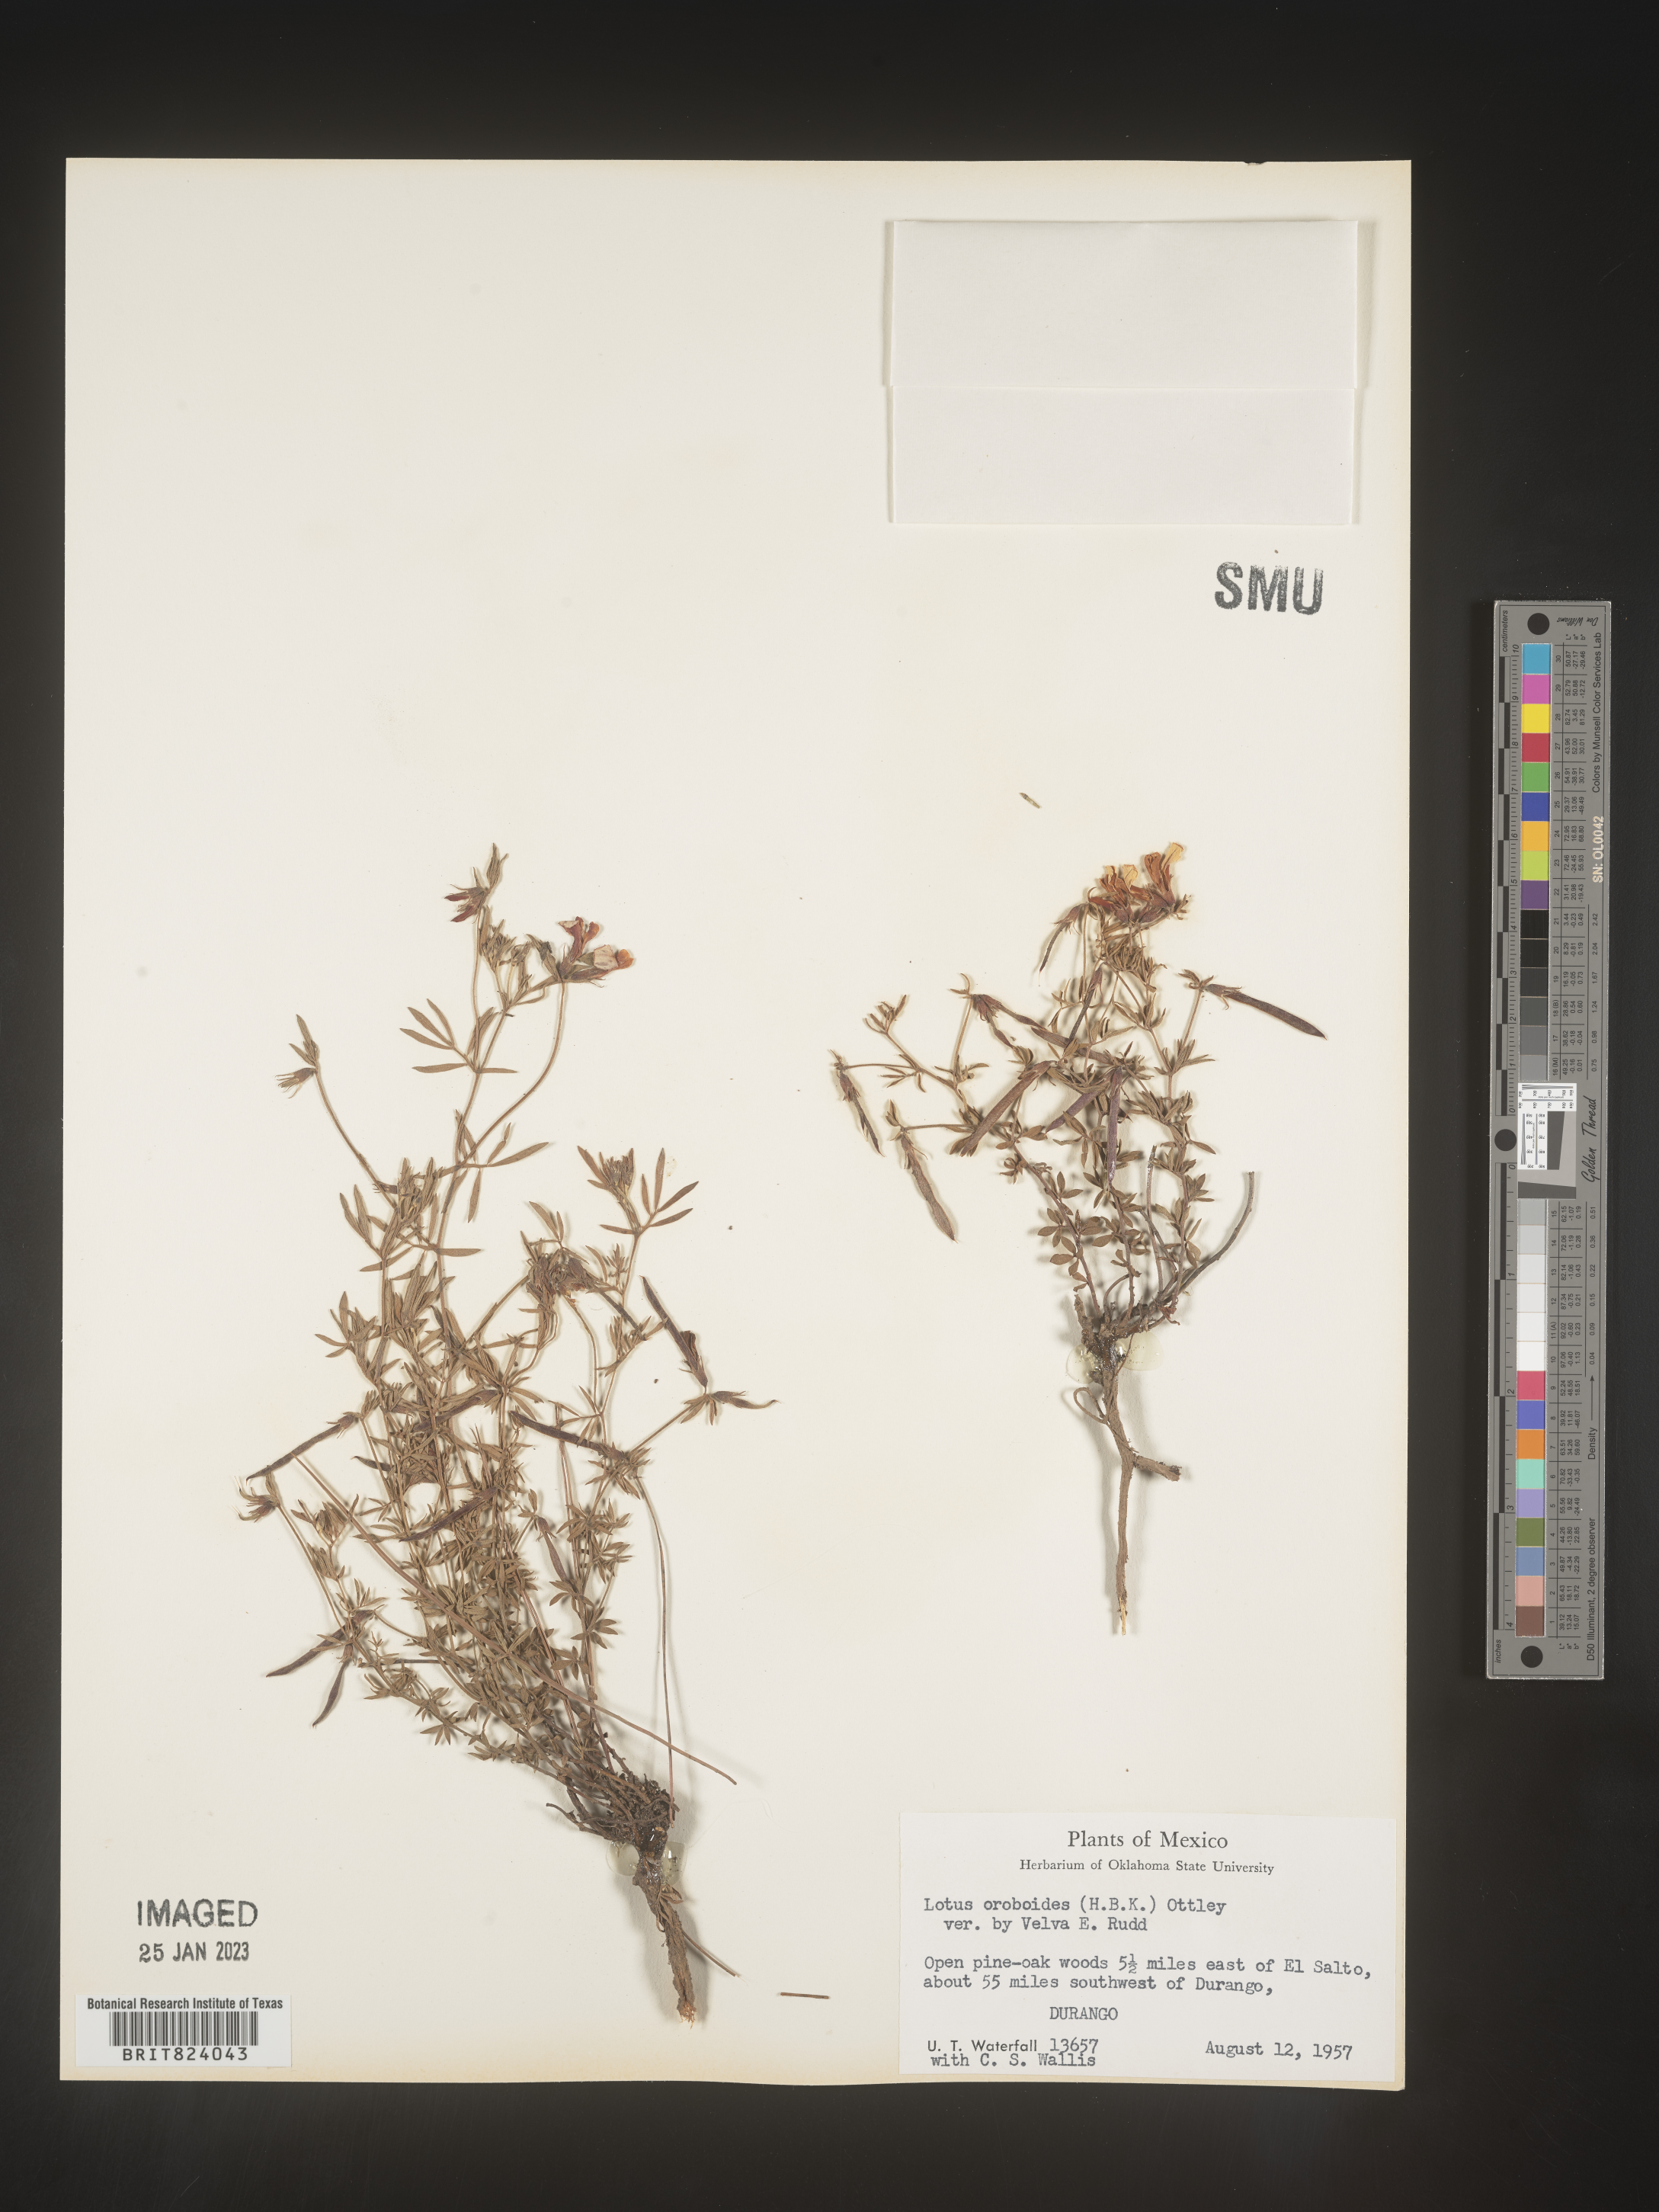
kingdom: Plantae
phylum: Tracheophyta
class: Magnoliopsida
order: Fabales
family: Fabaceae
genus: Lotus
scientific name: Lotus
